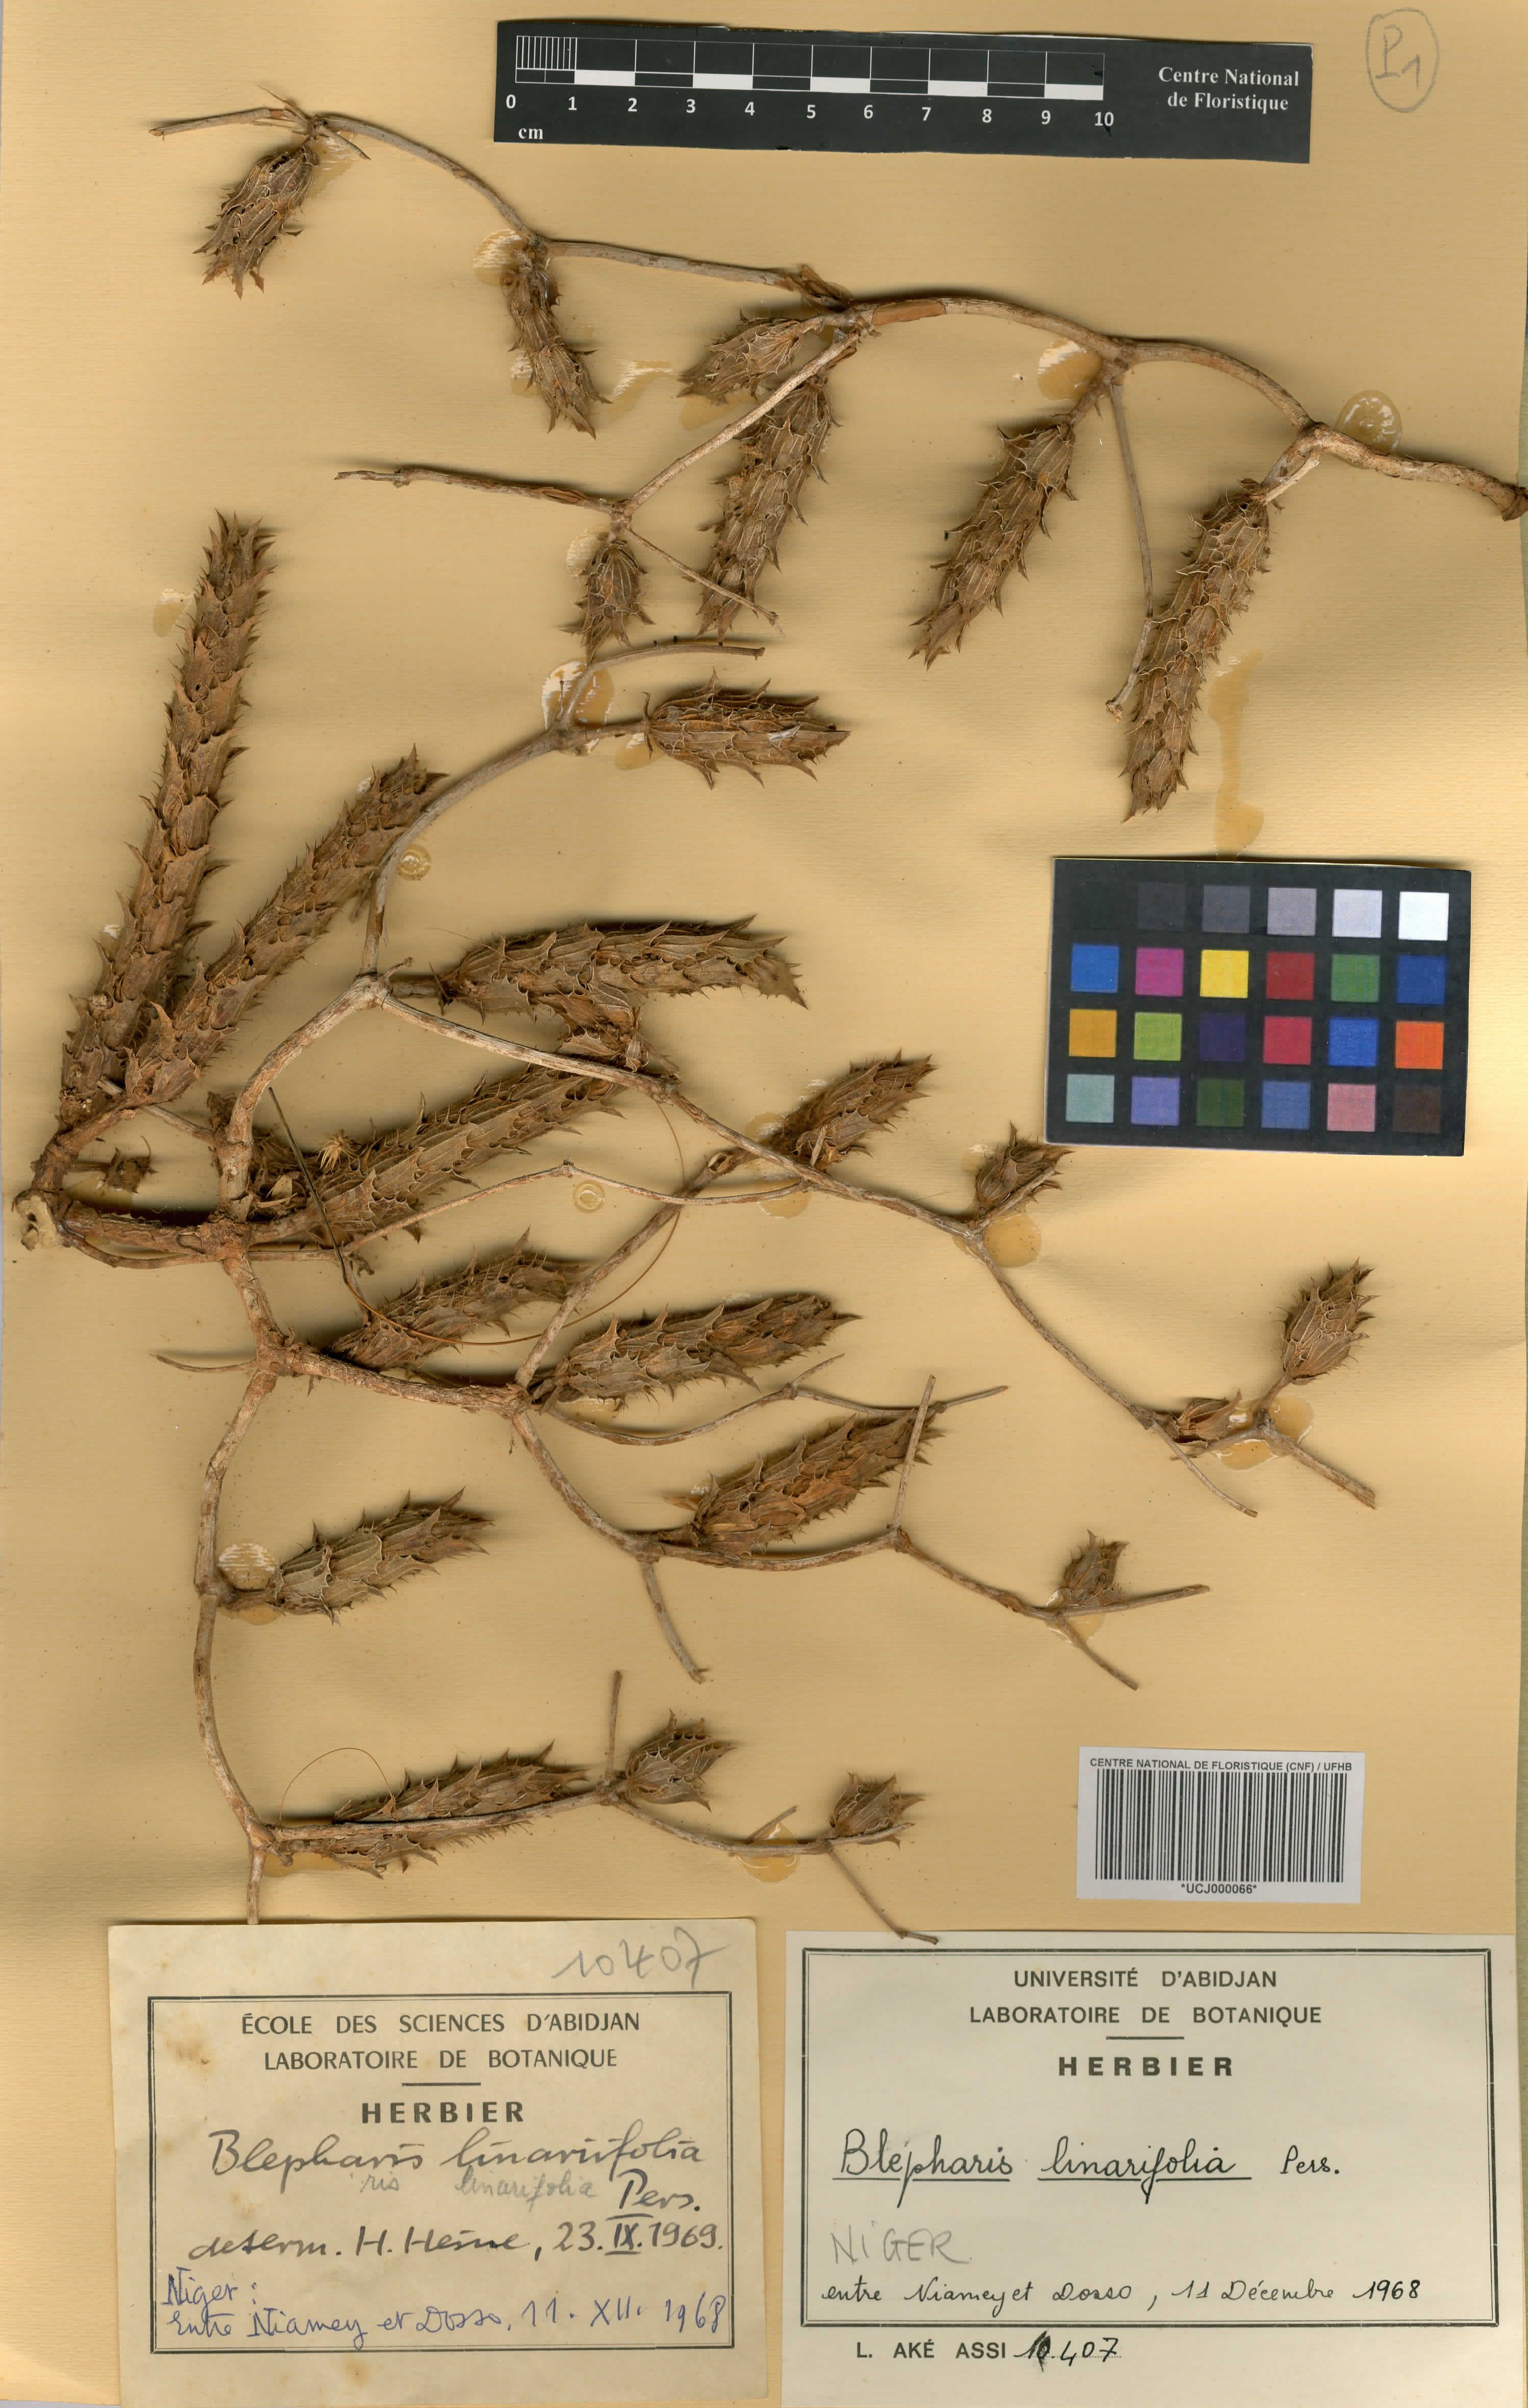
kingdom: Plantae
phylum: Tracheophyta
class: Magnoliopsida
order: Lamiales
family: Acanthaceae
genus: Blepharis
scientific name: Blepharis linariifolia
